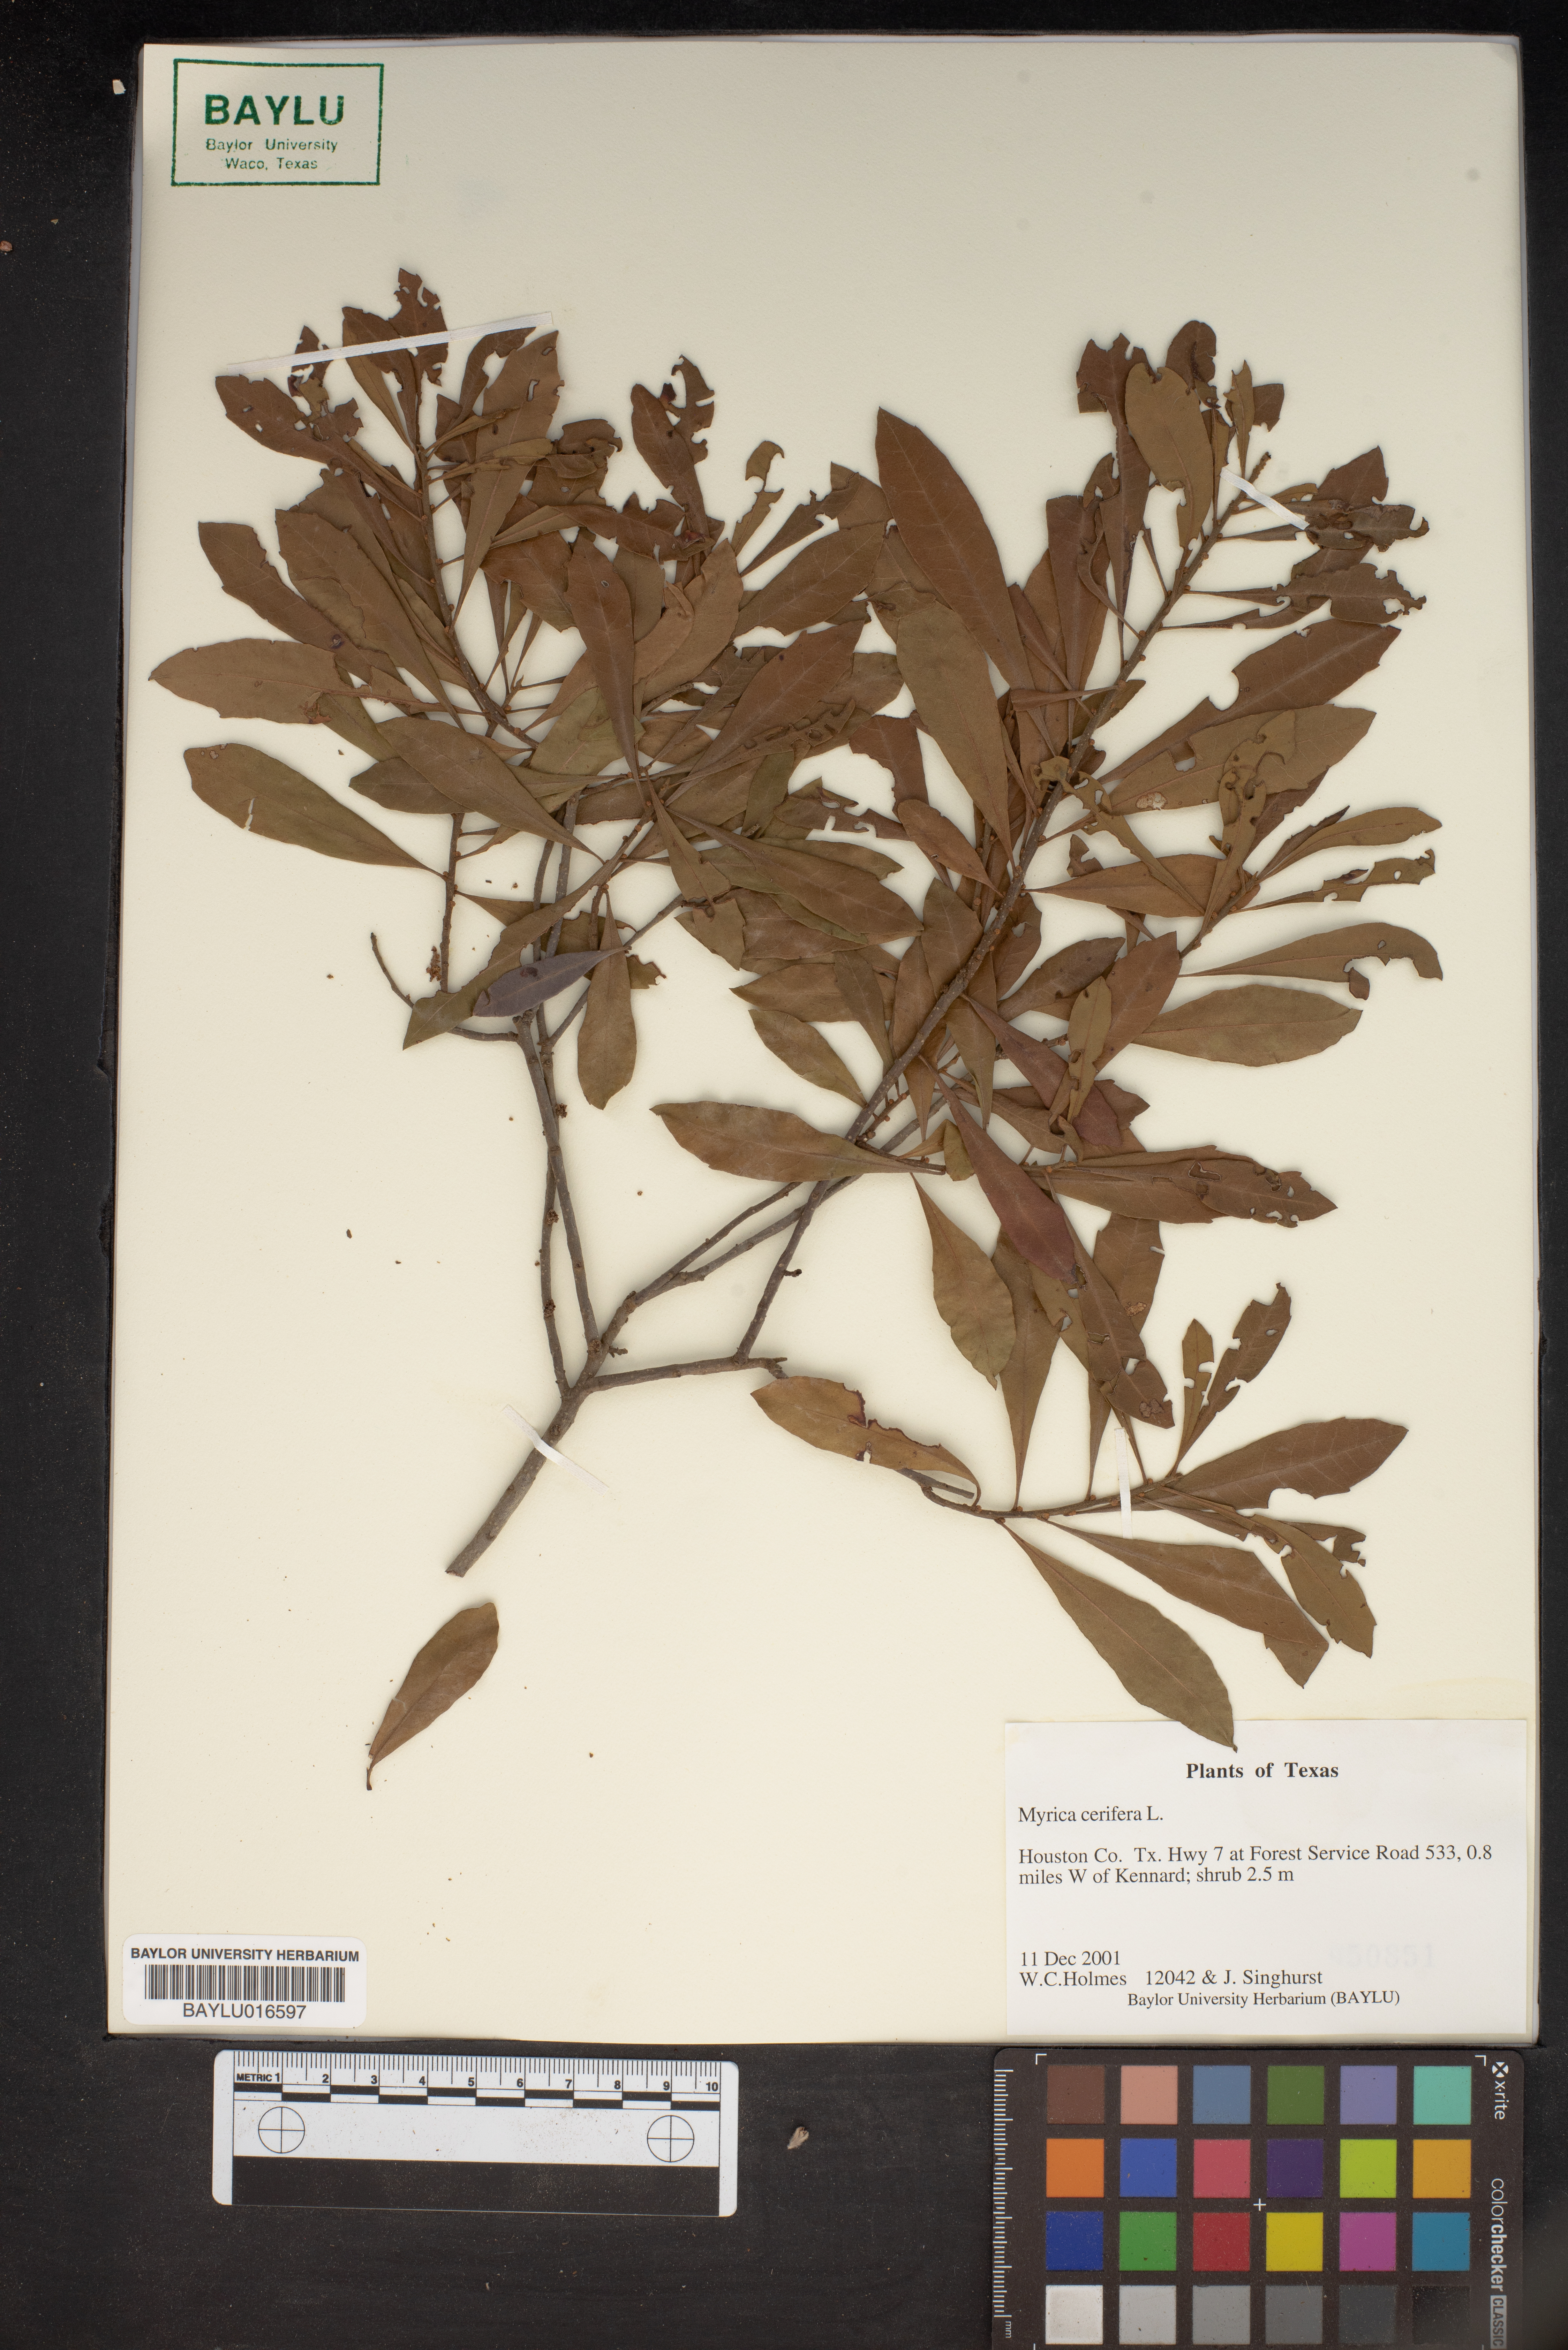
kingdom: Plantae
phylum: Tracheophyta
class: Magnoliopsida
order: Fagales
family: Myricaceae
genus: Morella
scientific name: Morella cerifera
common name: Wax myrtle
